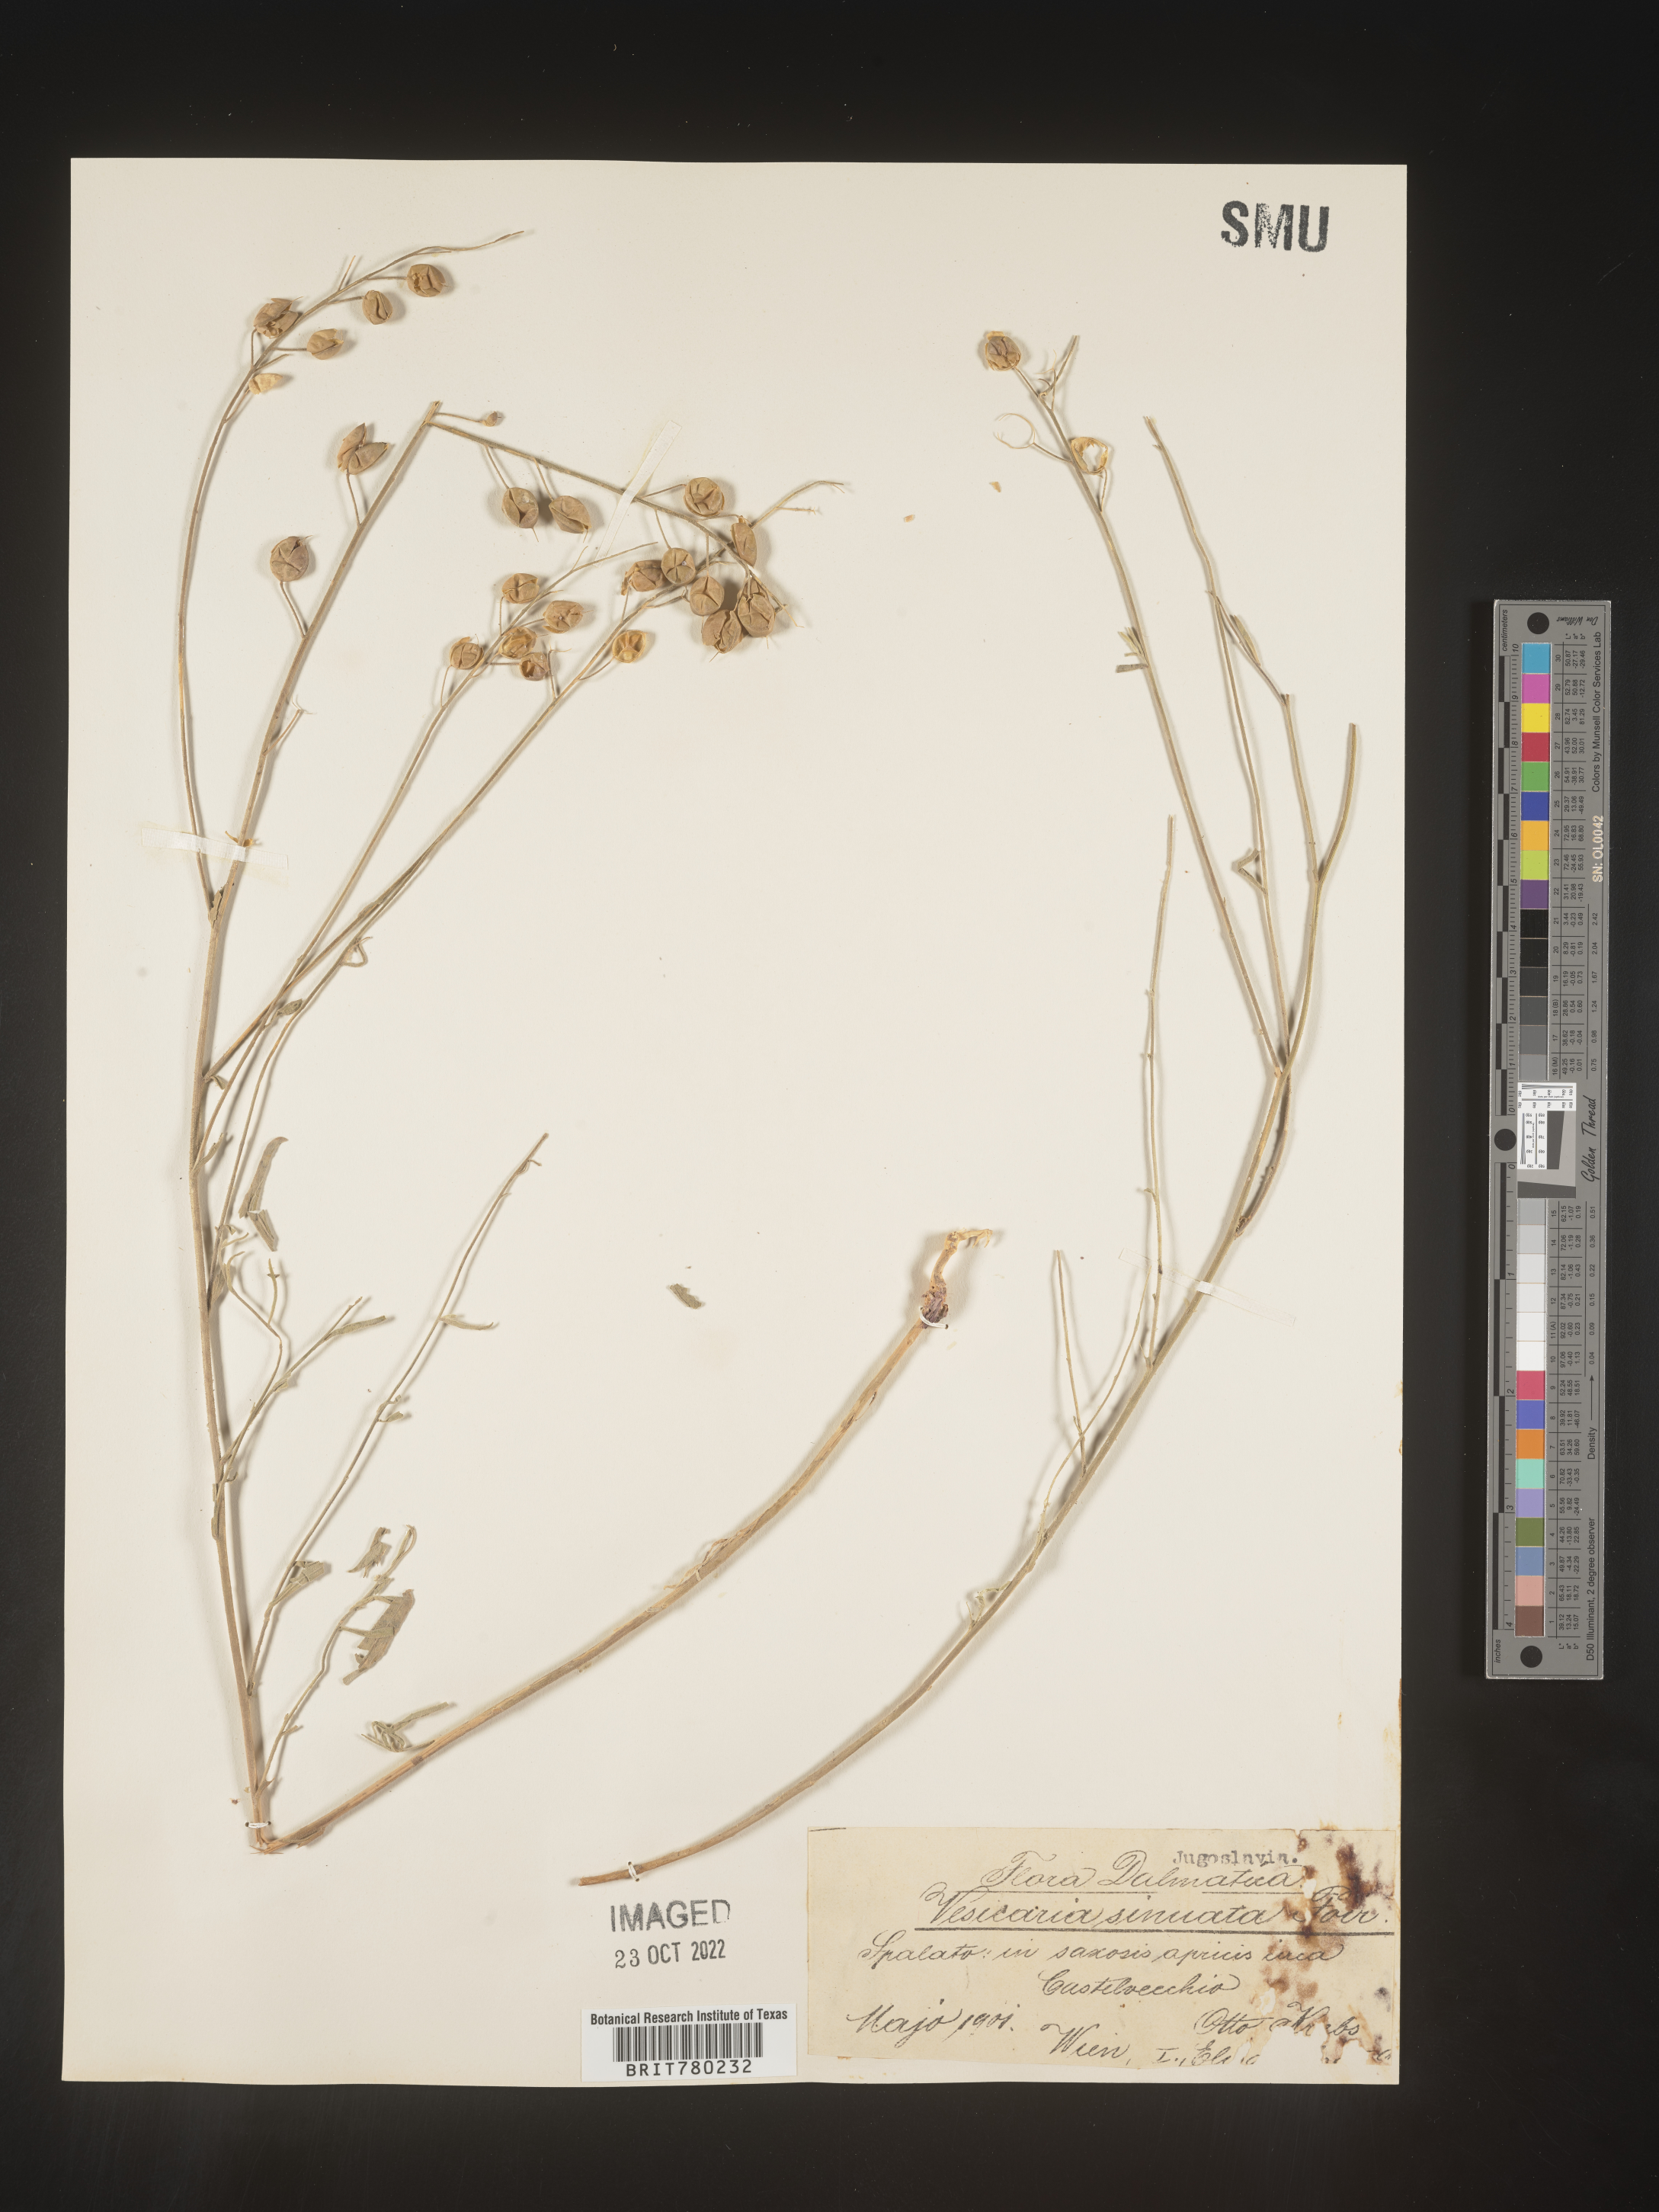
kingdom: Plantae
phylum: Tracheophyta
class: Magnoliopsida
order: Brassicales
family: Brassicaceae
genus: Alyssoides
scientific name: Alyssoides
